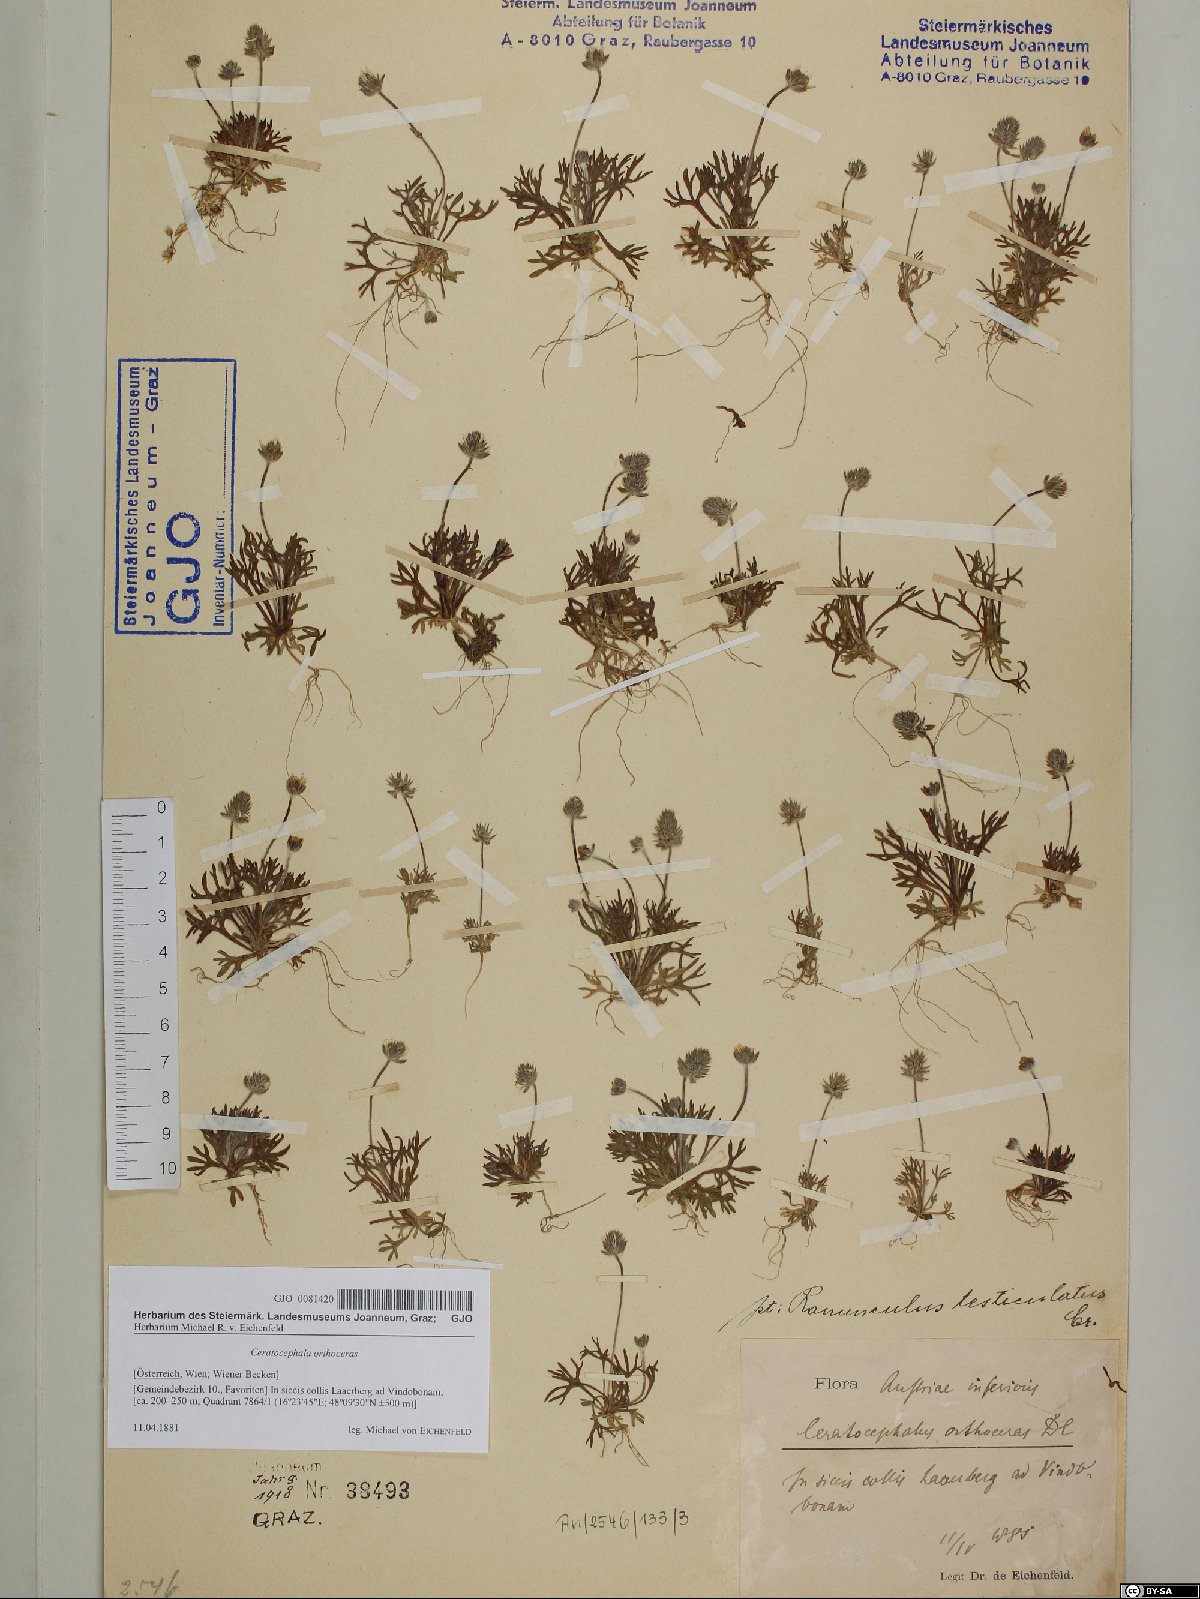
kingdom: Plantae
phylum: Tracheophyta
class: Magnoliopsida
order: Ranunculales
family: Ranunculaceae
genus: Ceratocephala
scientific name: Ceratocephala orthoceras
